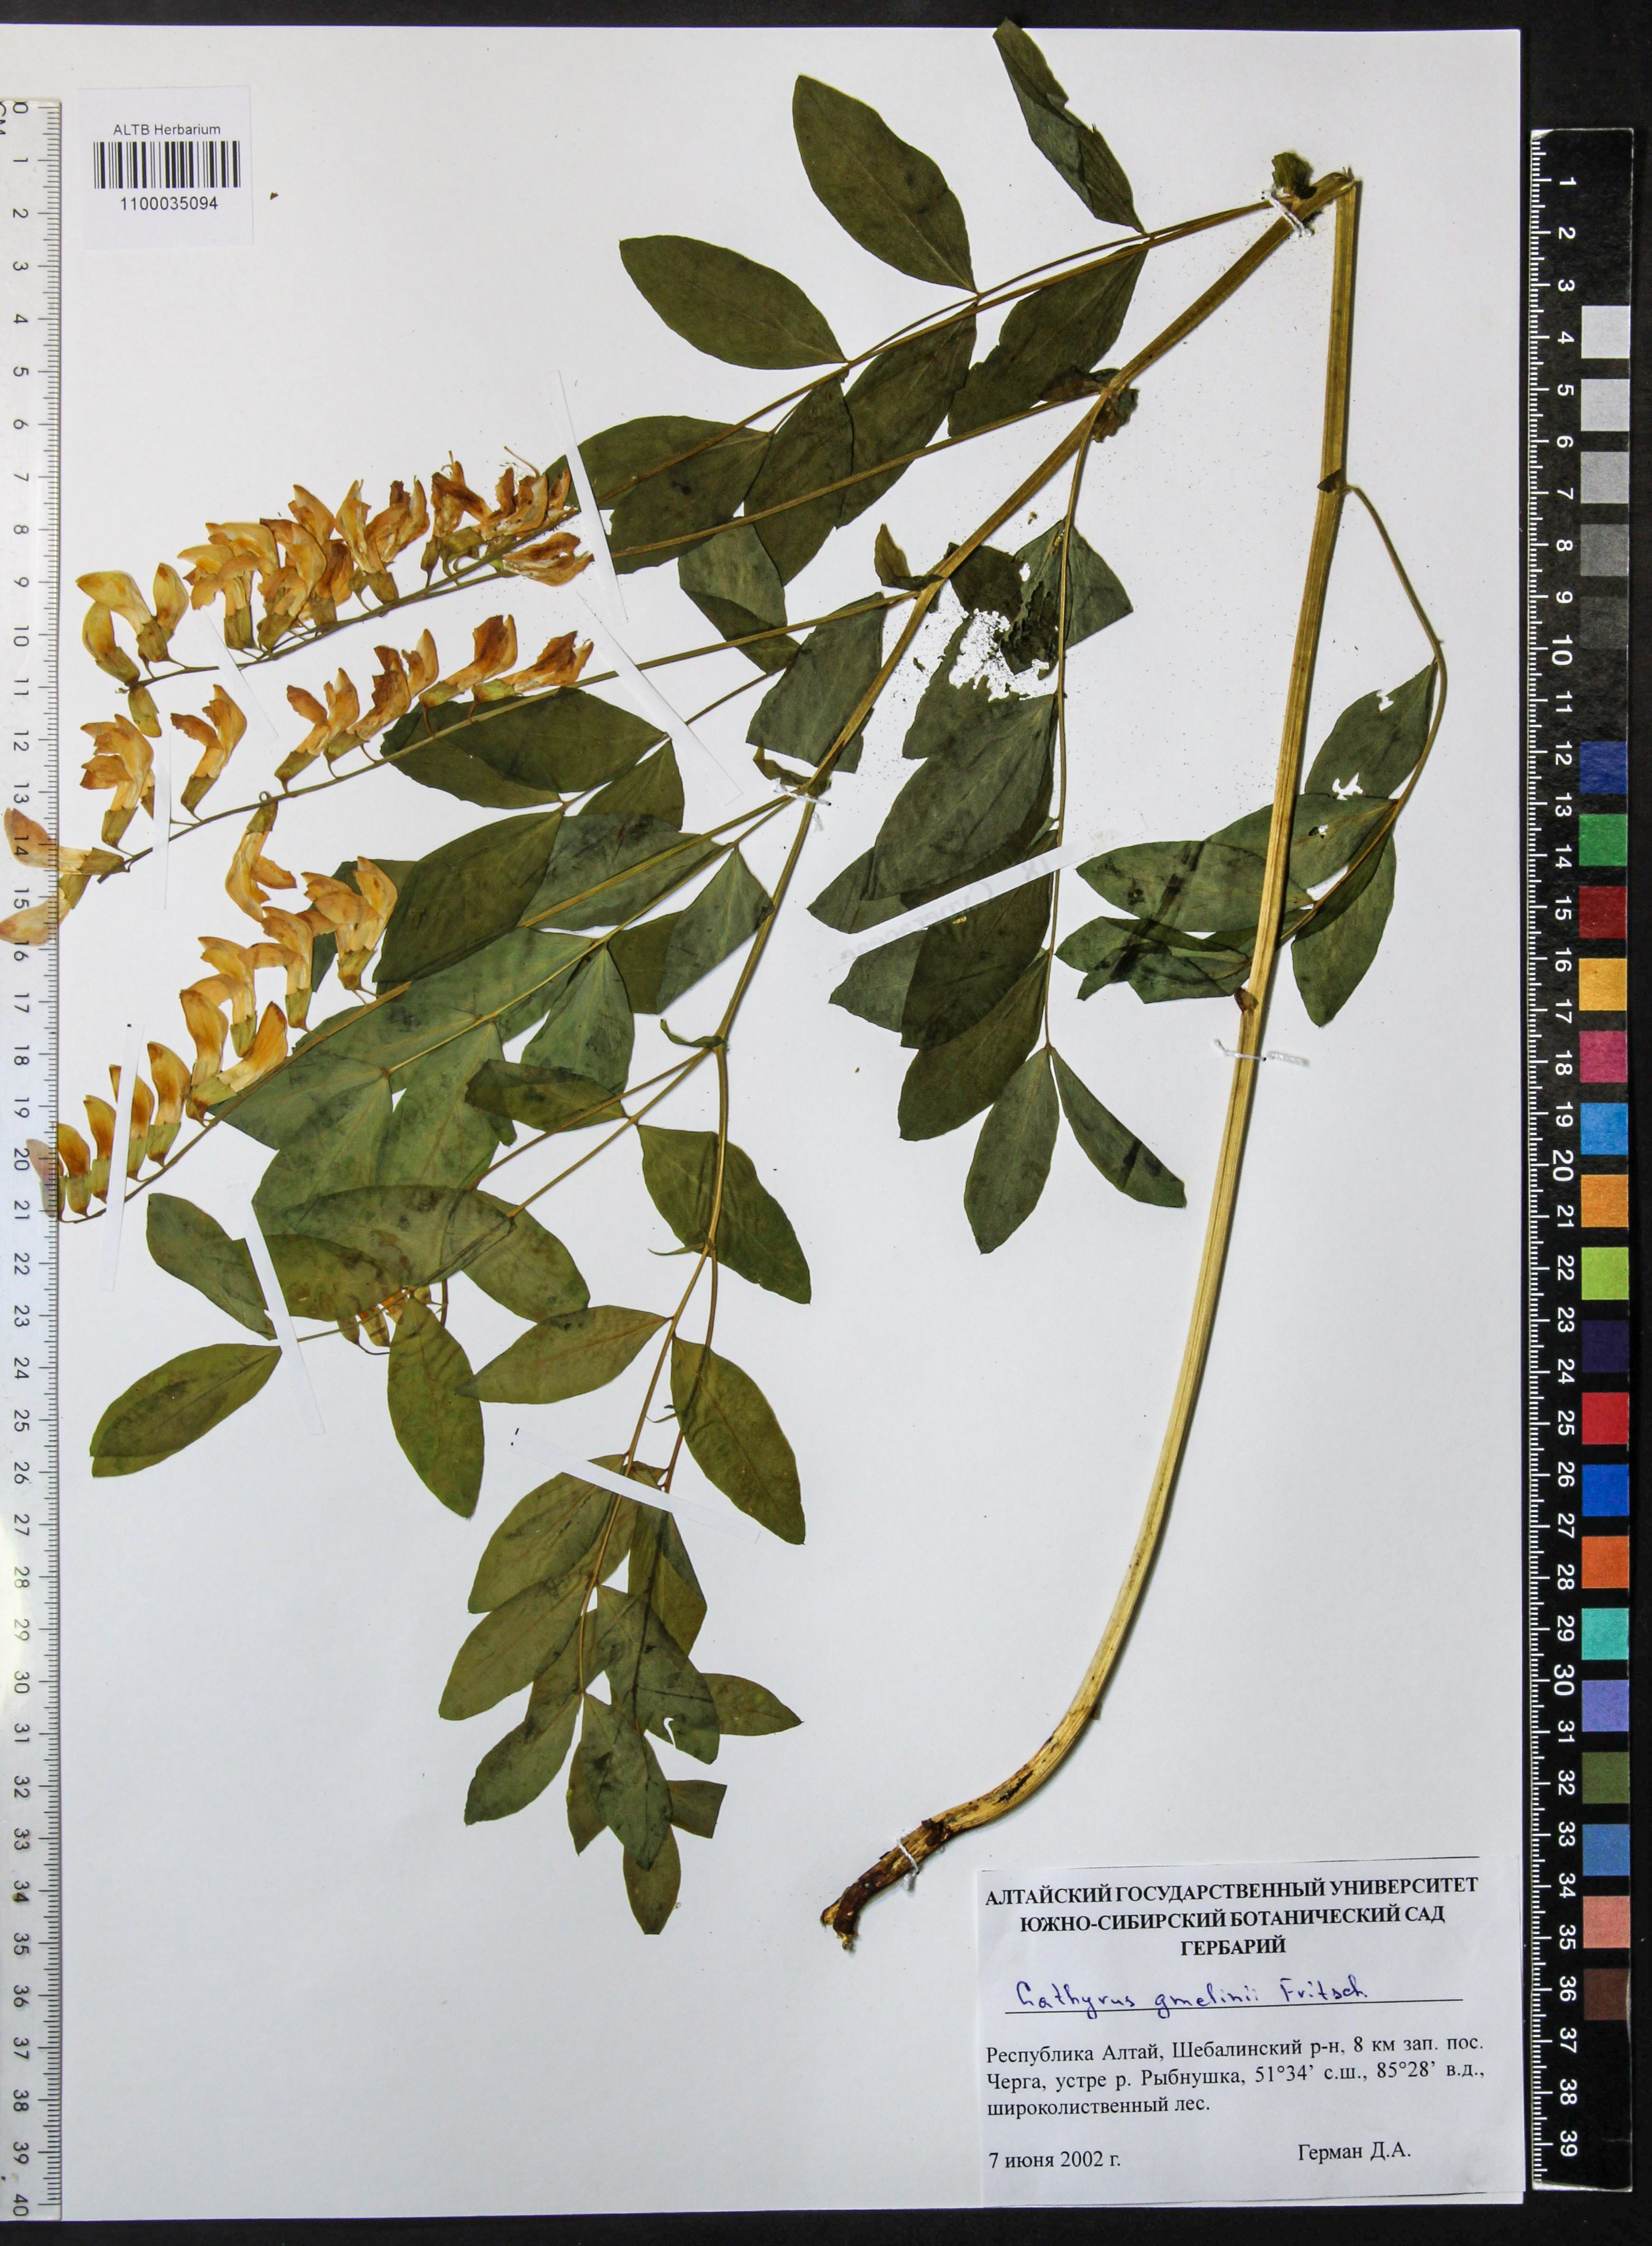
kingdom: Plantae
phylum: Tracheophyta
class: Magnoliopsida
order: Fabales
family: Fabaceae
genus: Lathyrus
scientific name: Lathyrus gmelinii
